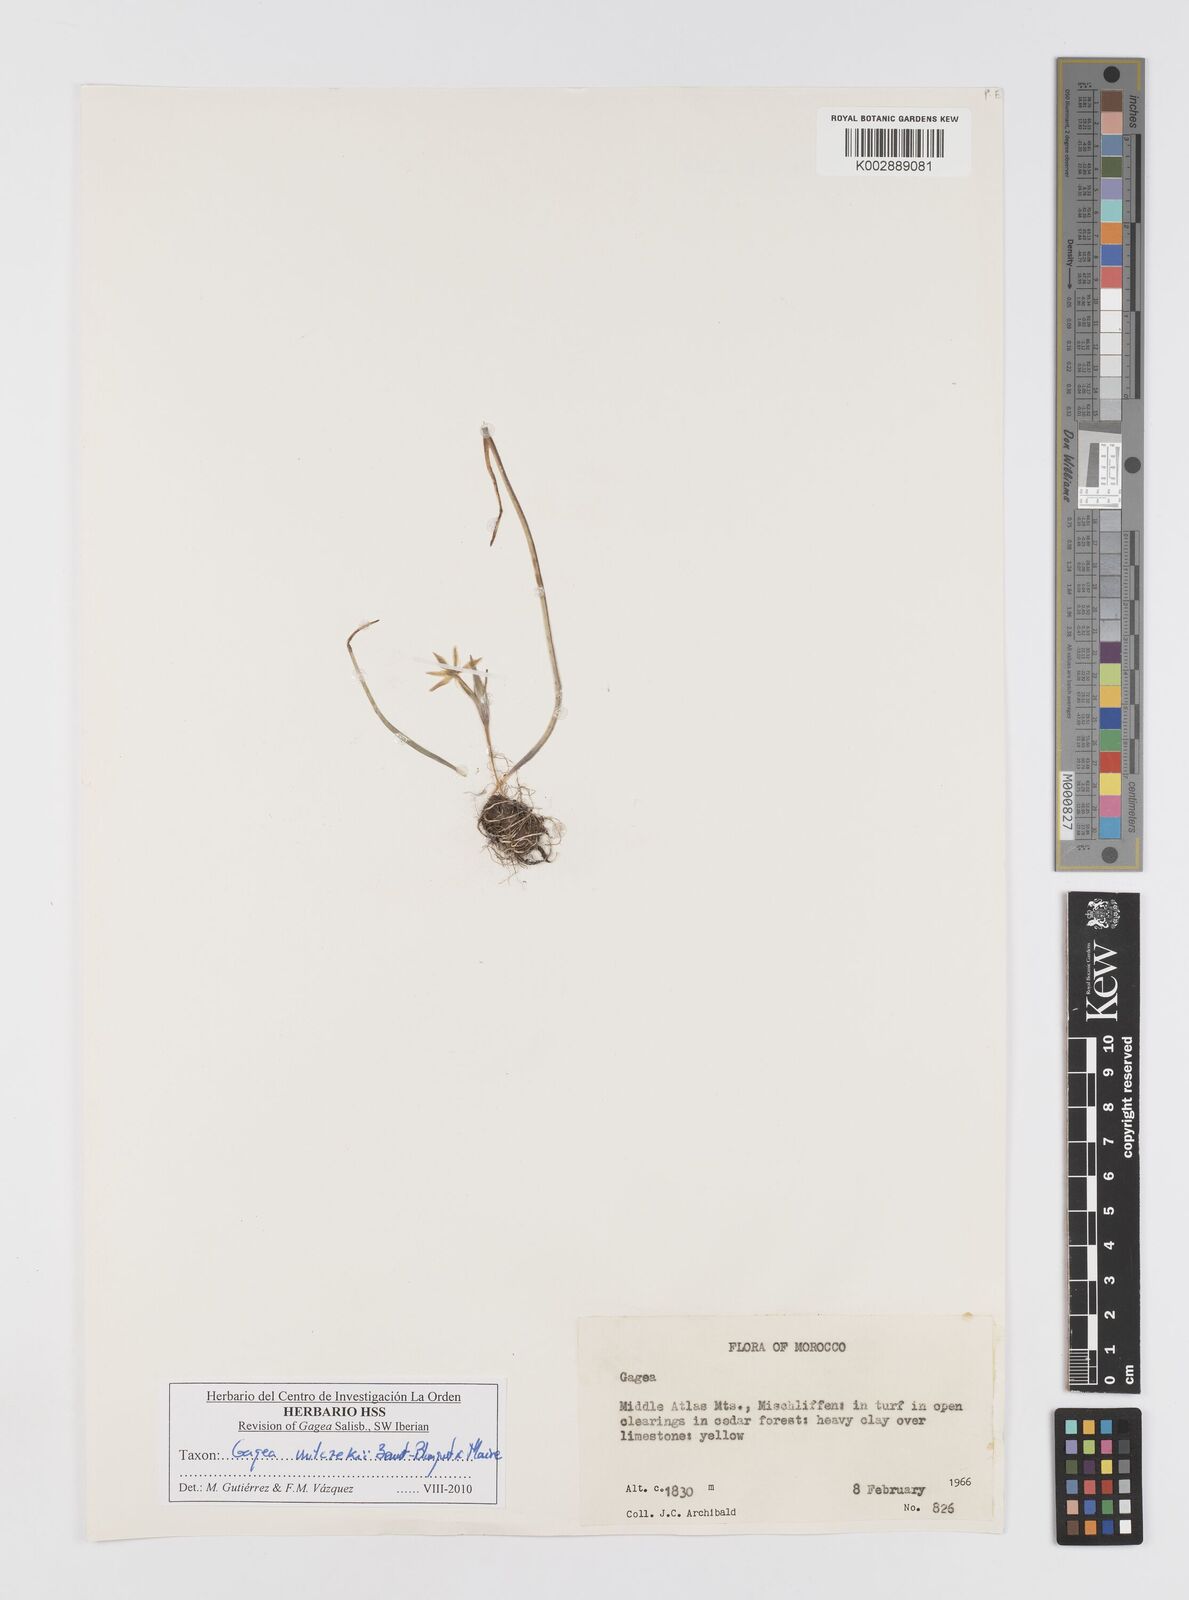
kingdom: Plantae
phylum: Tracheophyta
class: Liliopsida
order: Liliales
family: Liliaceae
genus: Gagea
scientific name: Gagea algeriensis
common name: Algerian gagea
